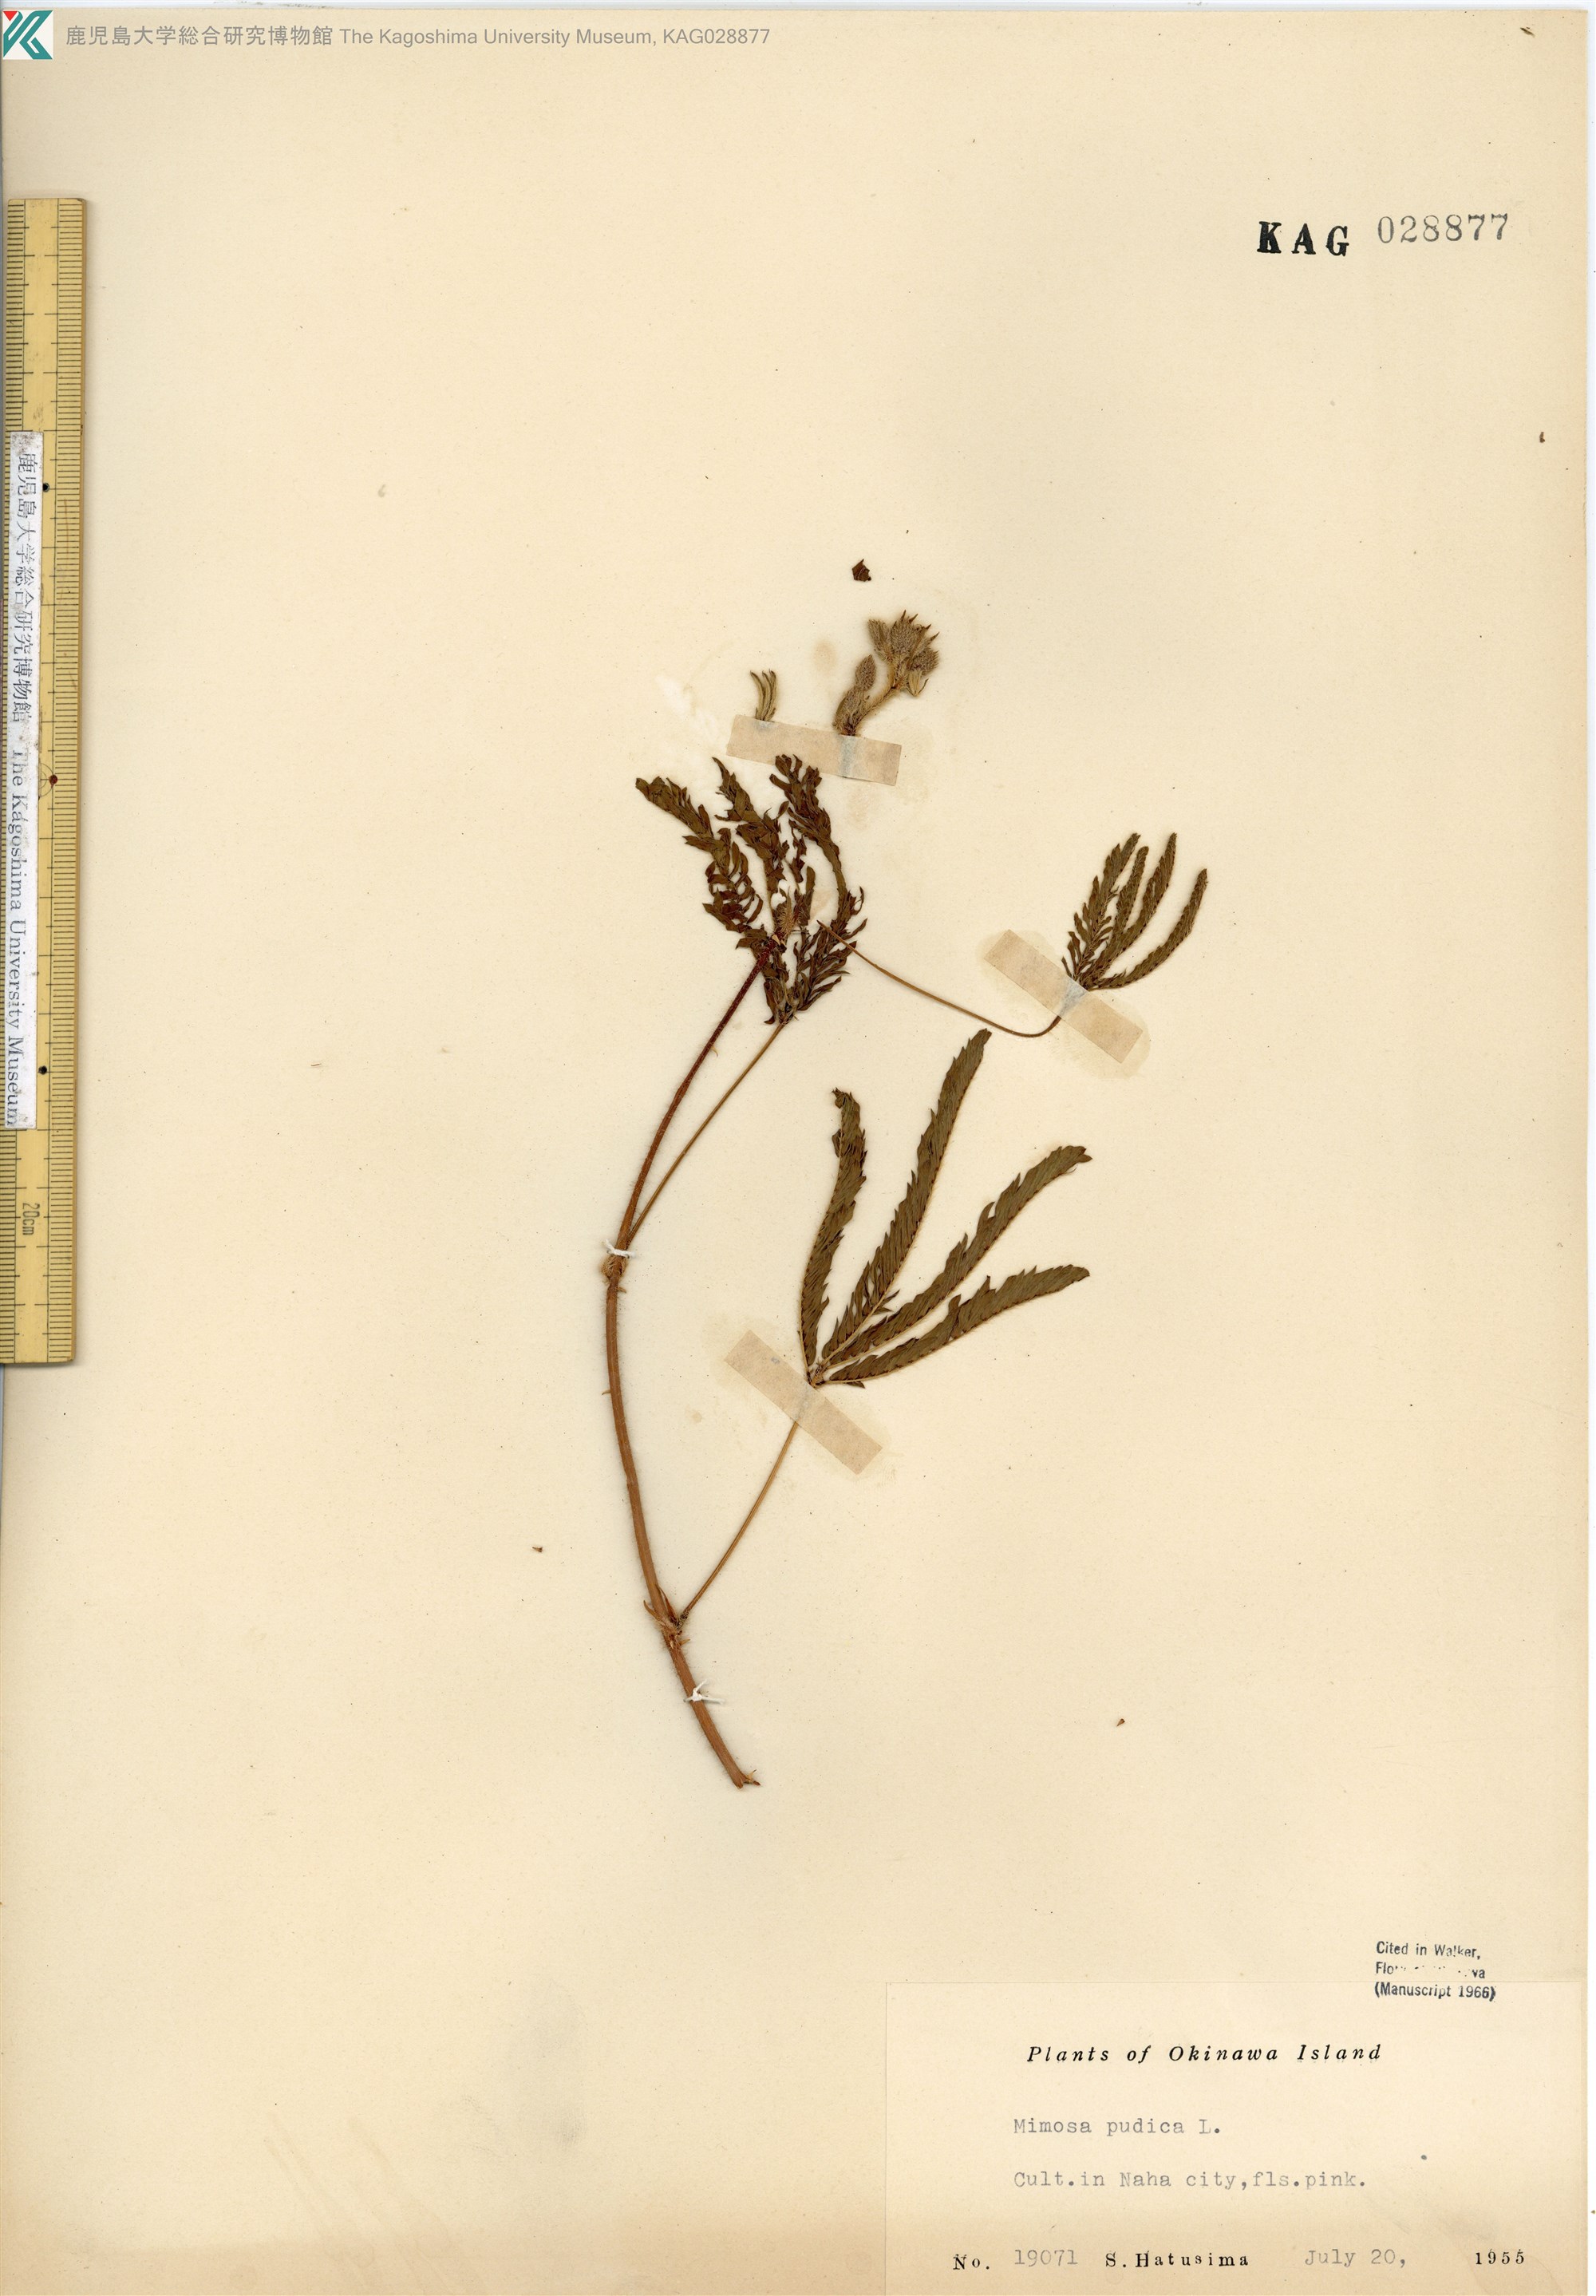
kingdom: Plantae
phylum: Tracheophyta
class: Magnoliopsida
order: Fabales
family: Fabaceae
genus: Mimosa
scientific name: Mimosa pudica
